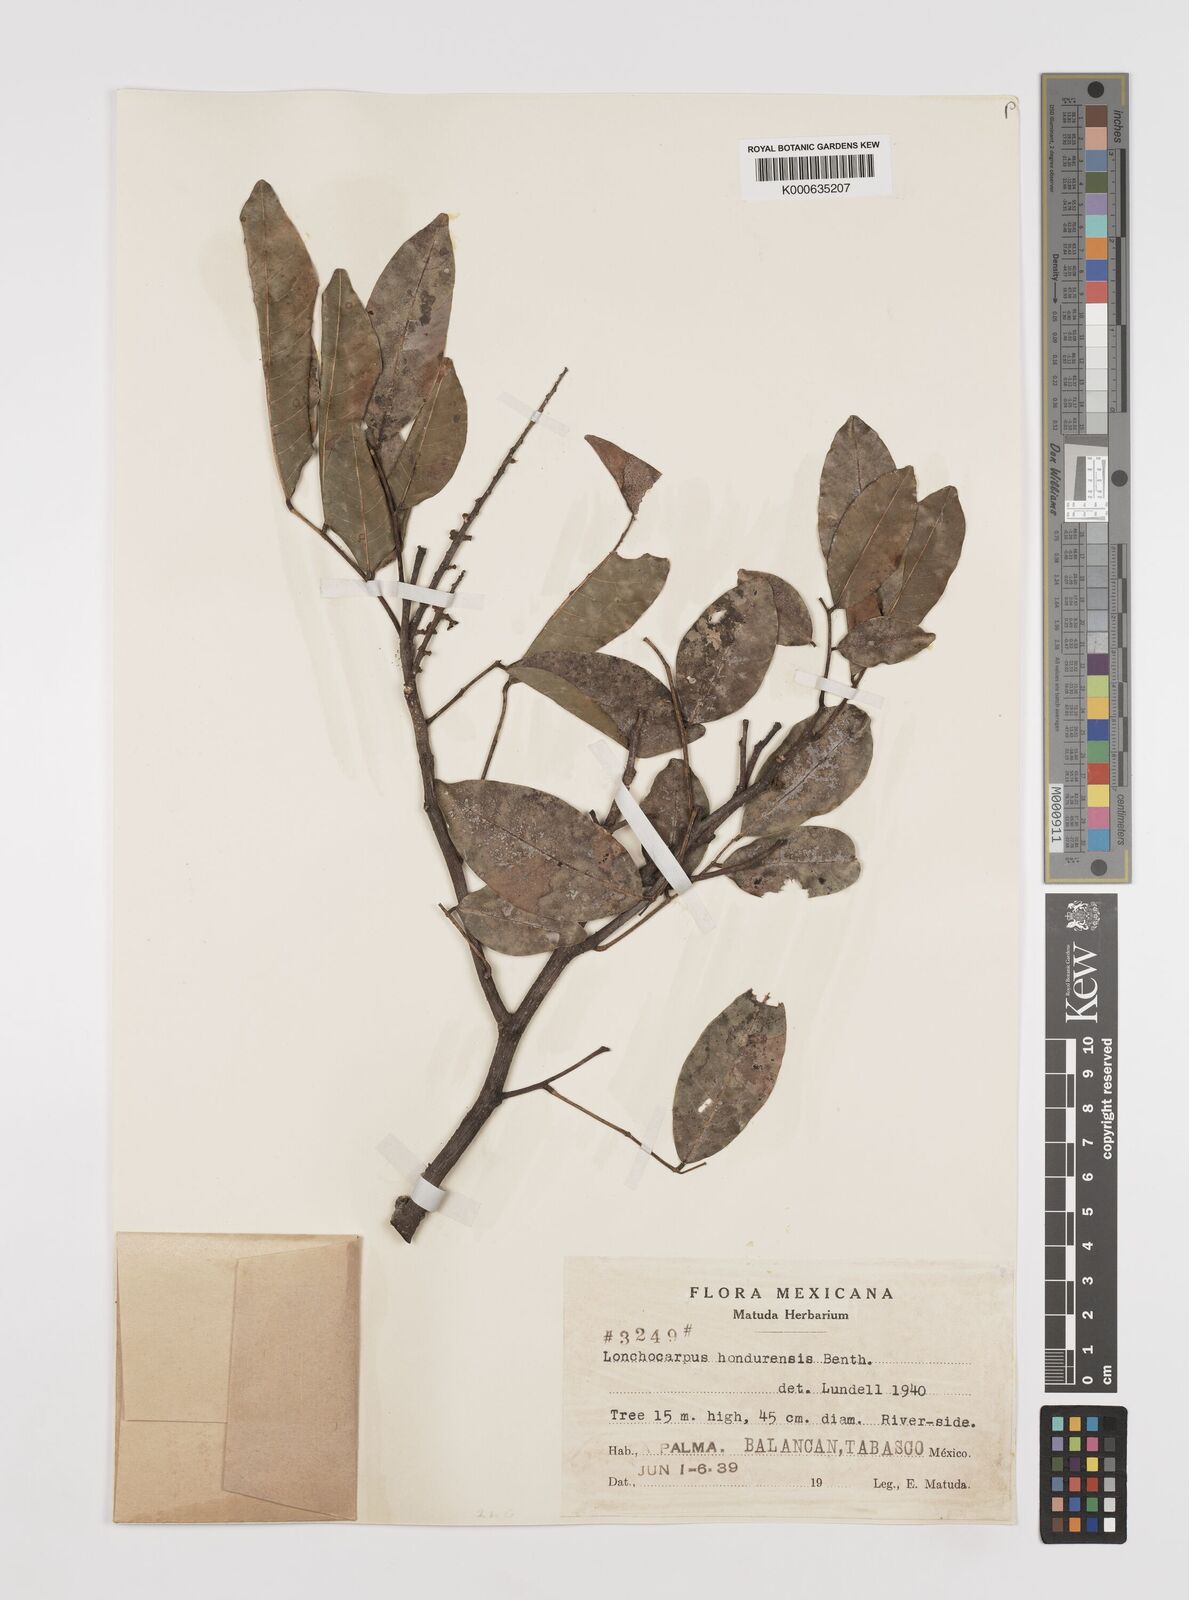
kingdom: Plantae
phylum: Tracheophyta
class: Magnoliopsida
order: Fabales
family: Fabaceae
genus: Lonchocarpus
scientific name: Lonchocarpus hondurensis
